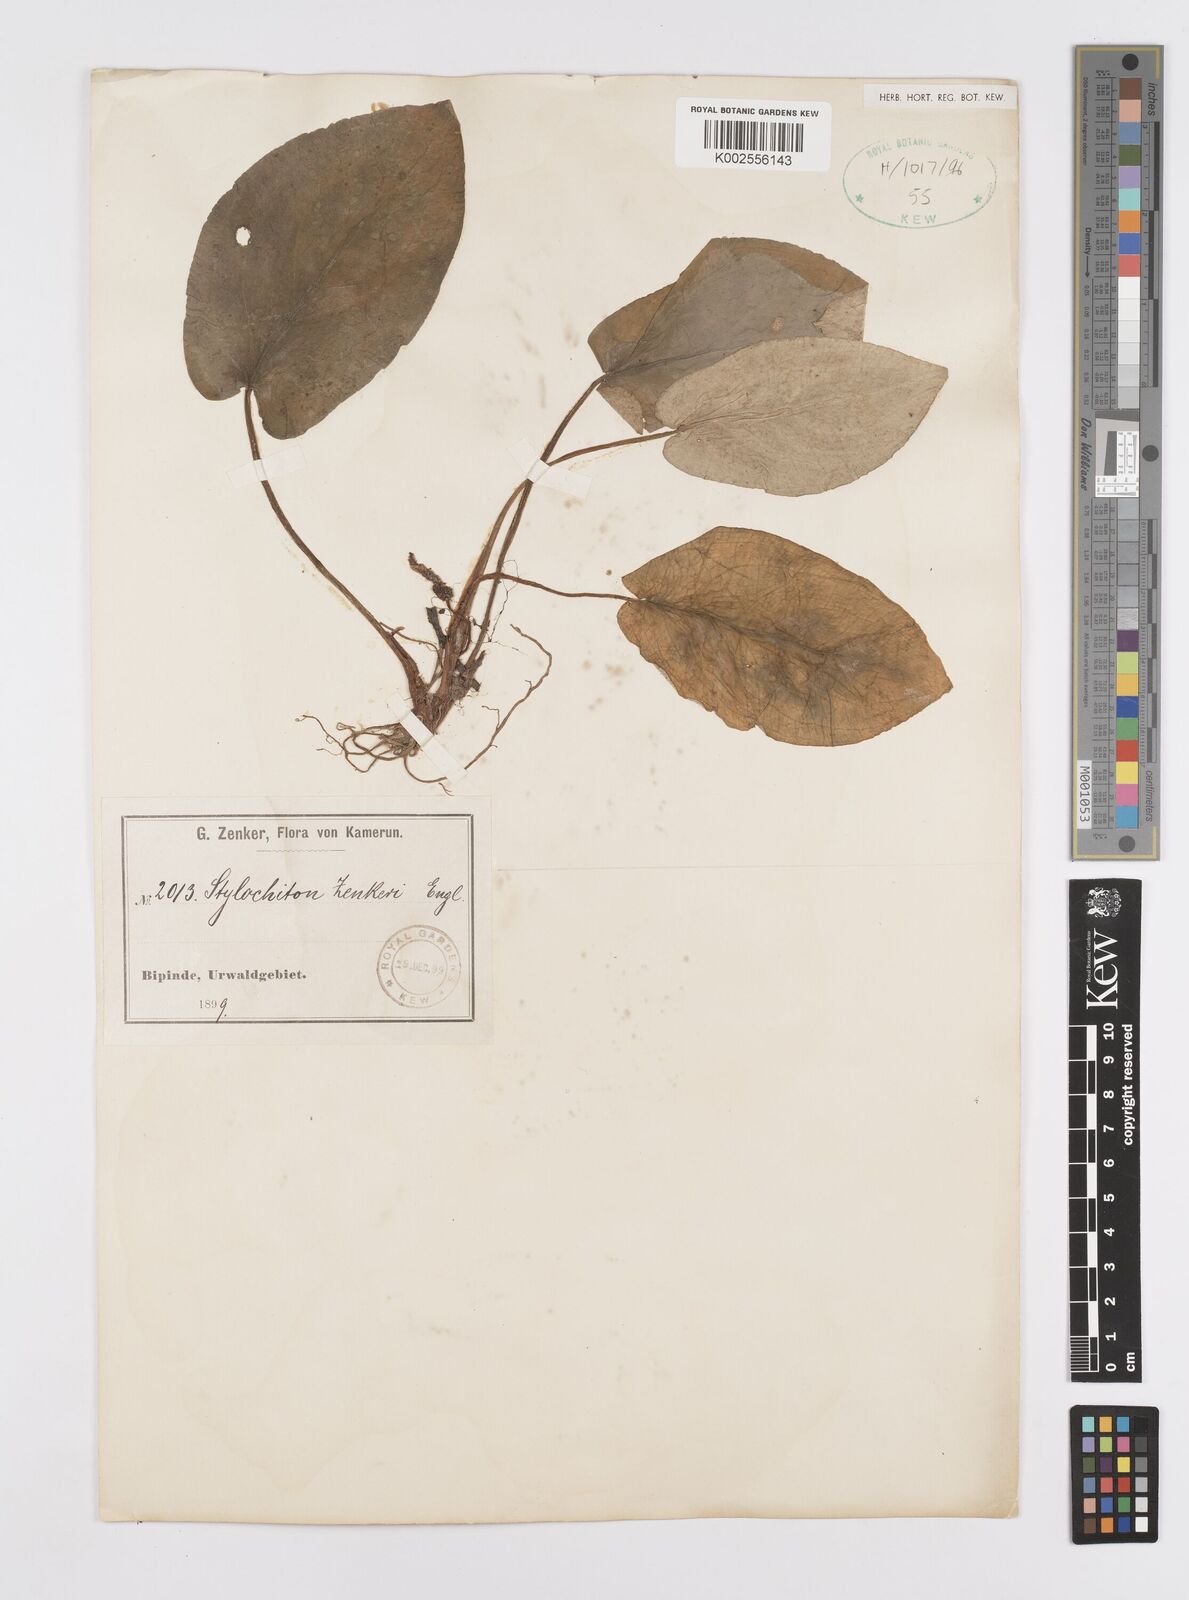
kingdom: Plantae
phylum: Tracheophyta
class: Liliopsida
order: Alismatales
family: Araceae
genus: Stylochaeton
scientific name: Stylochaeton zenkeri
